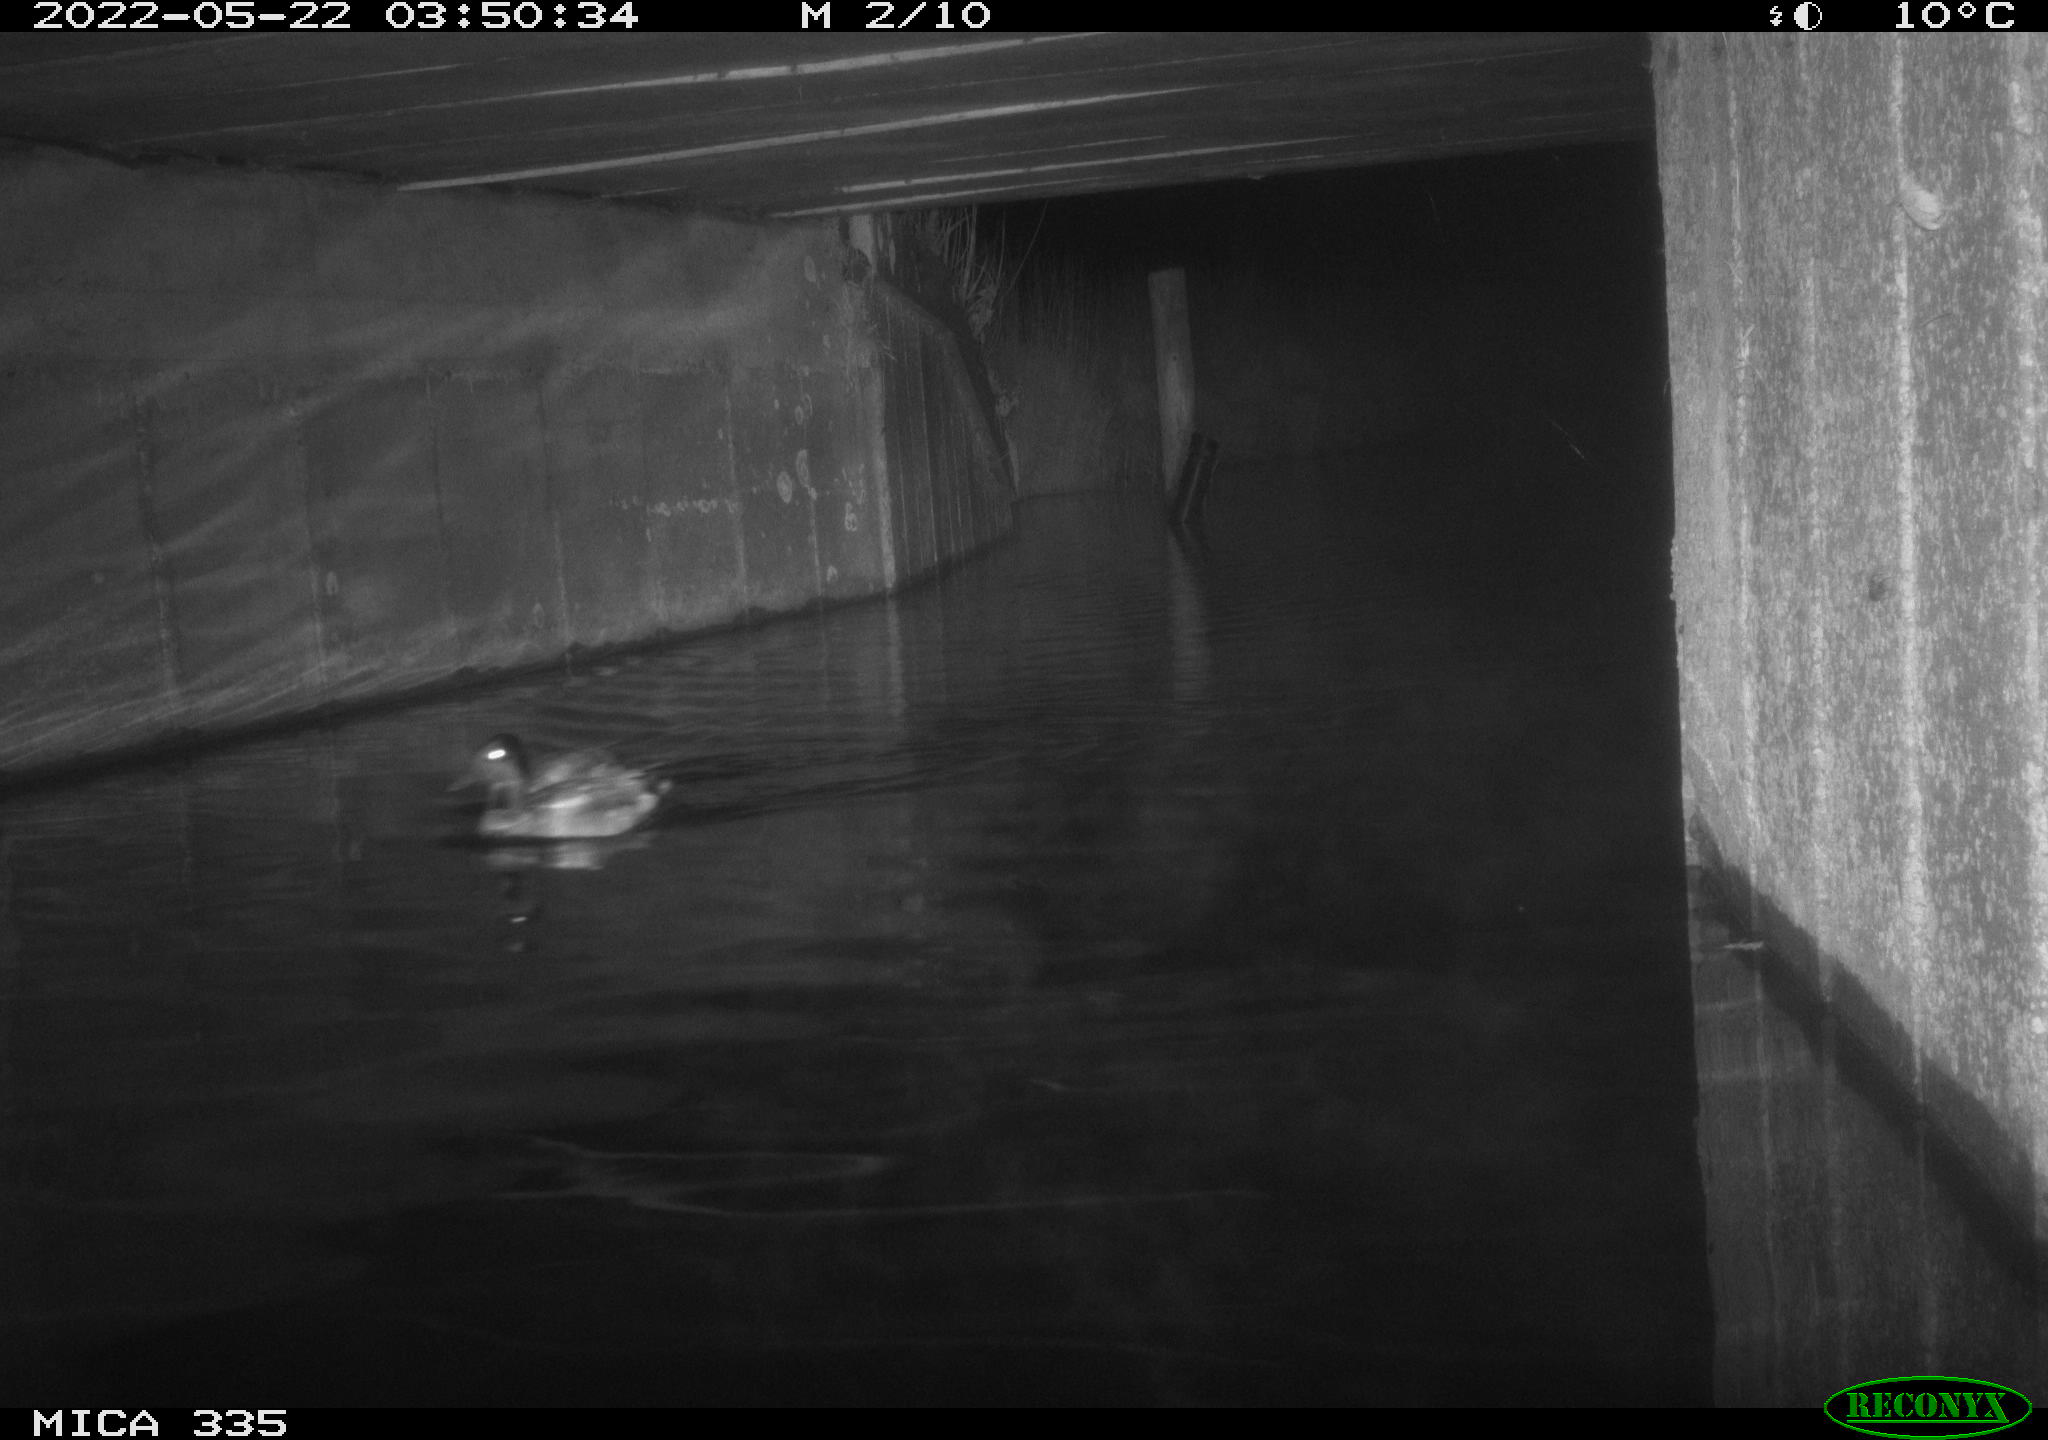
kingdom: Animalia
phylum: Chordata
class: Aves
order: Anseriformes
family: Anatidae
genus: Anas
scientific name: Anas platyrhynchos
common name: Mallard
